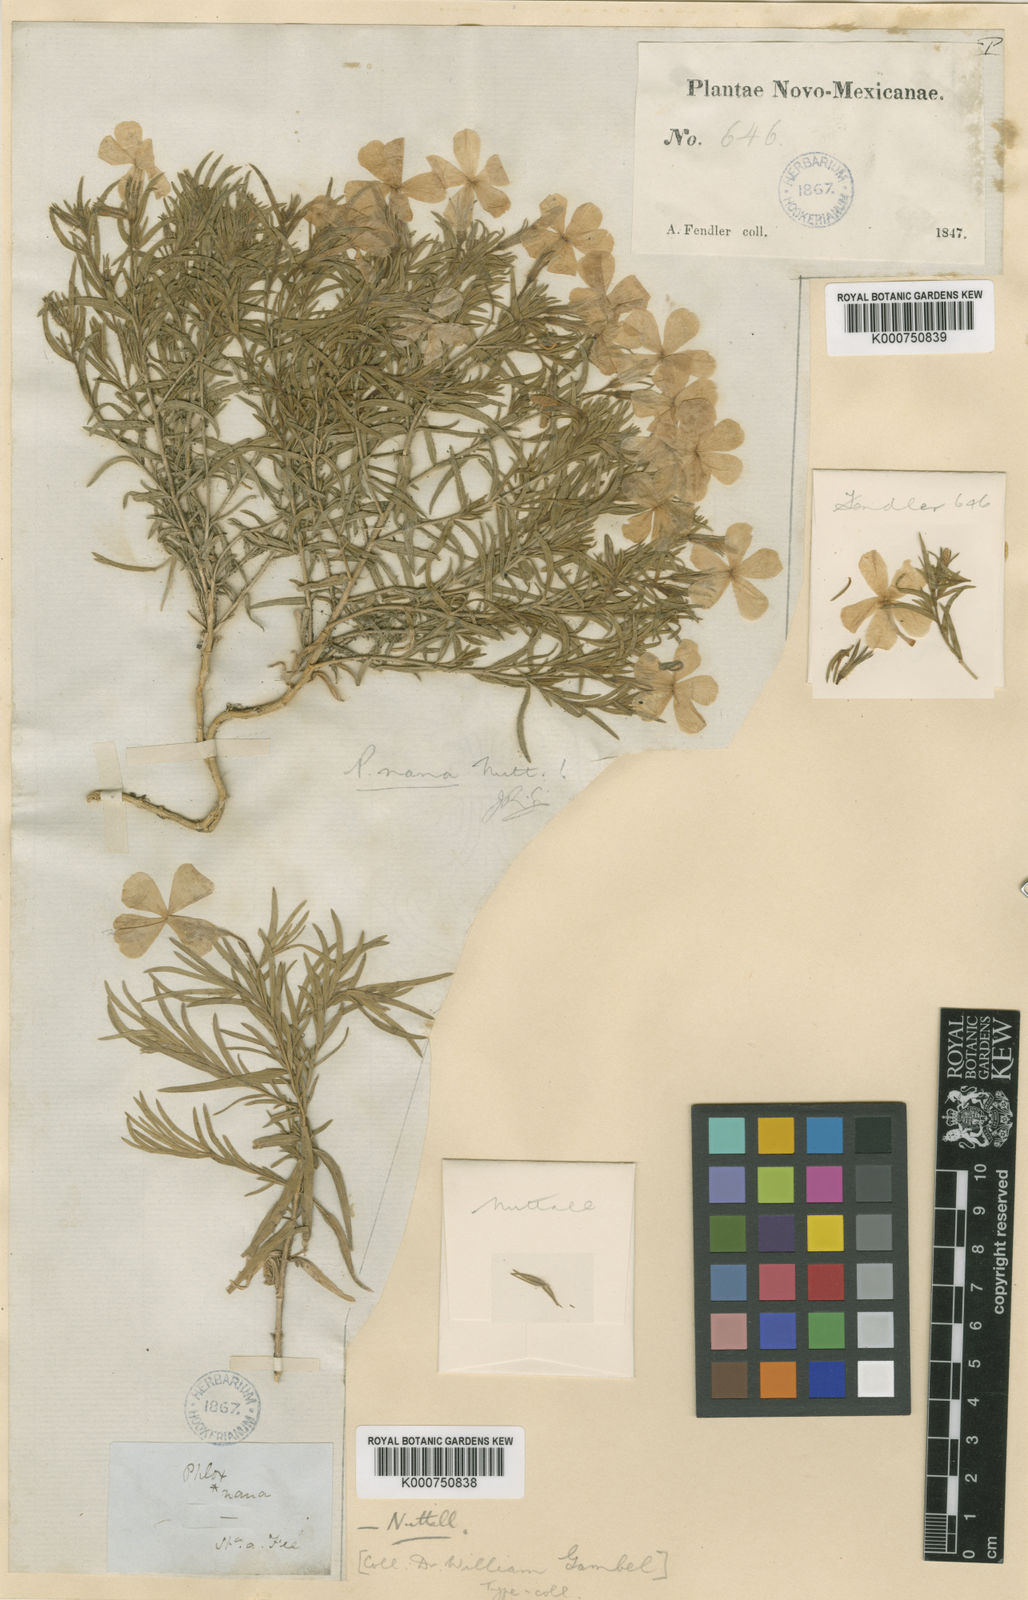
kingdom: Plantae
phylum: Tracheophyta
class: Magnoliopsida
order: Ericales
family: Polemoniaceae
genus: Phlox
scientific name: Phlox nana
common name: Santa fe phlox
